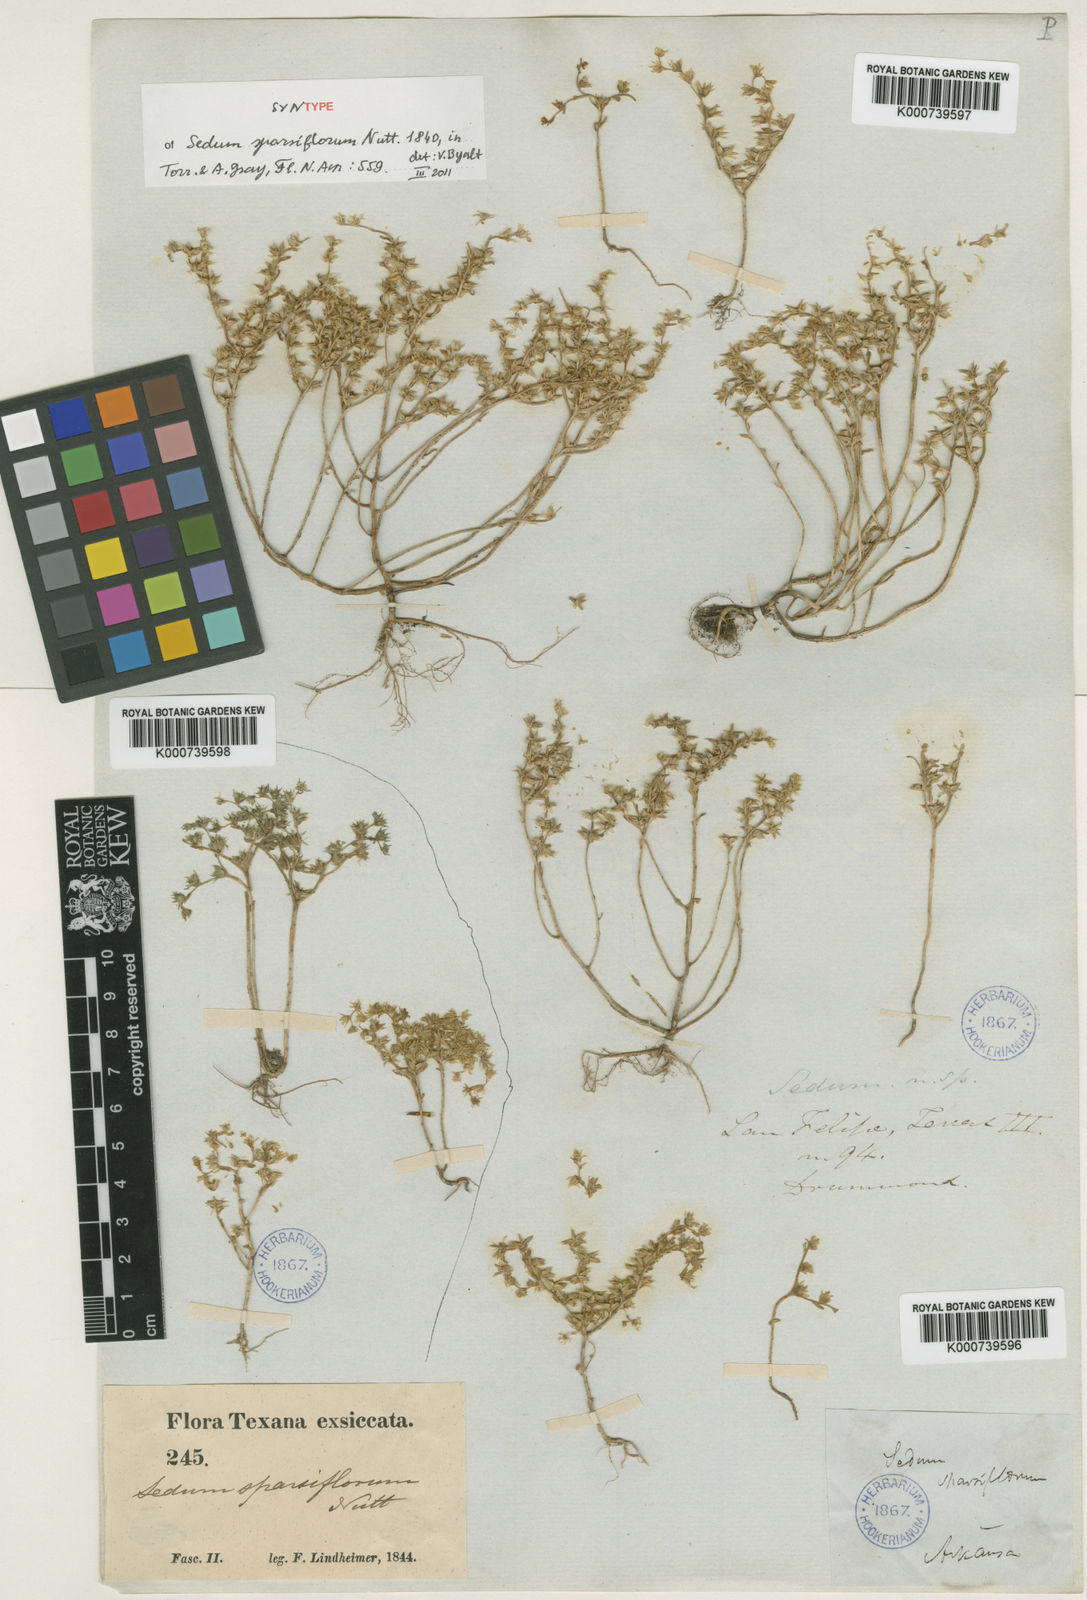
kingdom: Plantae
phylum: Tracheophyta
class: Magnoliopsida
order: Saxifragales
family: Crassulaceae
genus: Sedum
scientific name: Sedum
